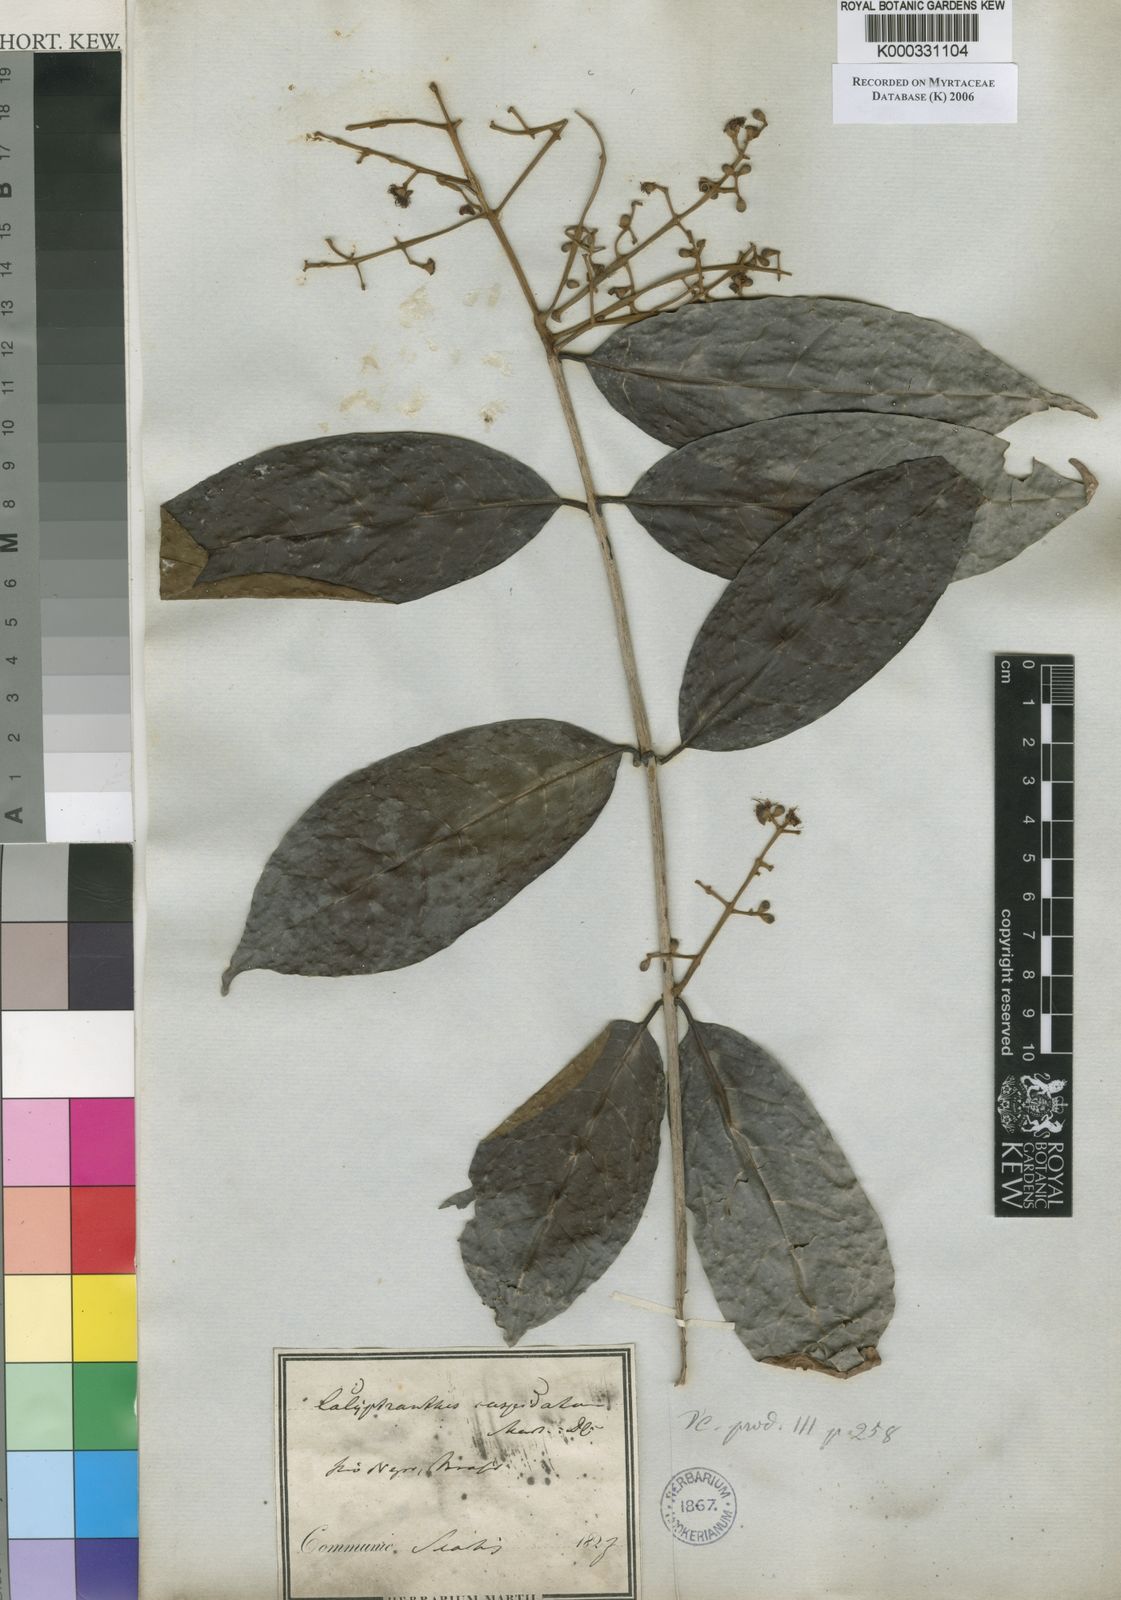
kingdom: Plantae
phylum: Tracheophyta
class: Magnoliopsida
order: Myrtales
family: Myrtaceae
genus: Myrcia
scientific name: Myrcia cuspidata
